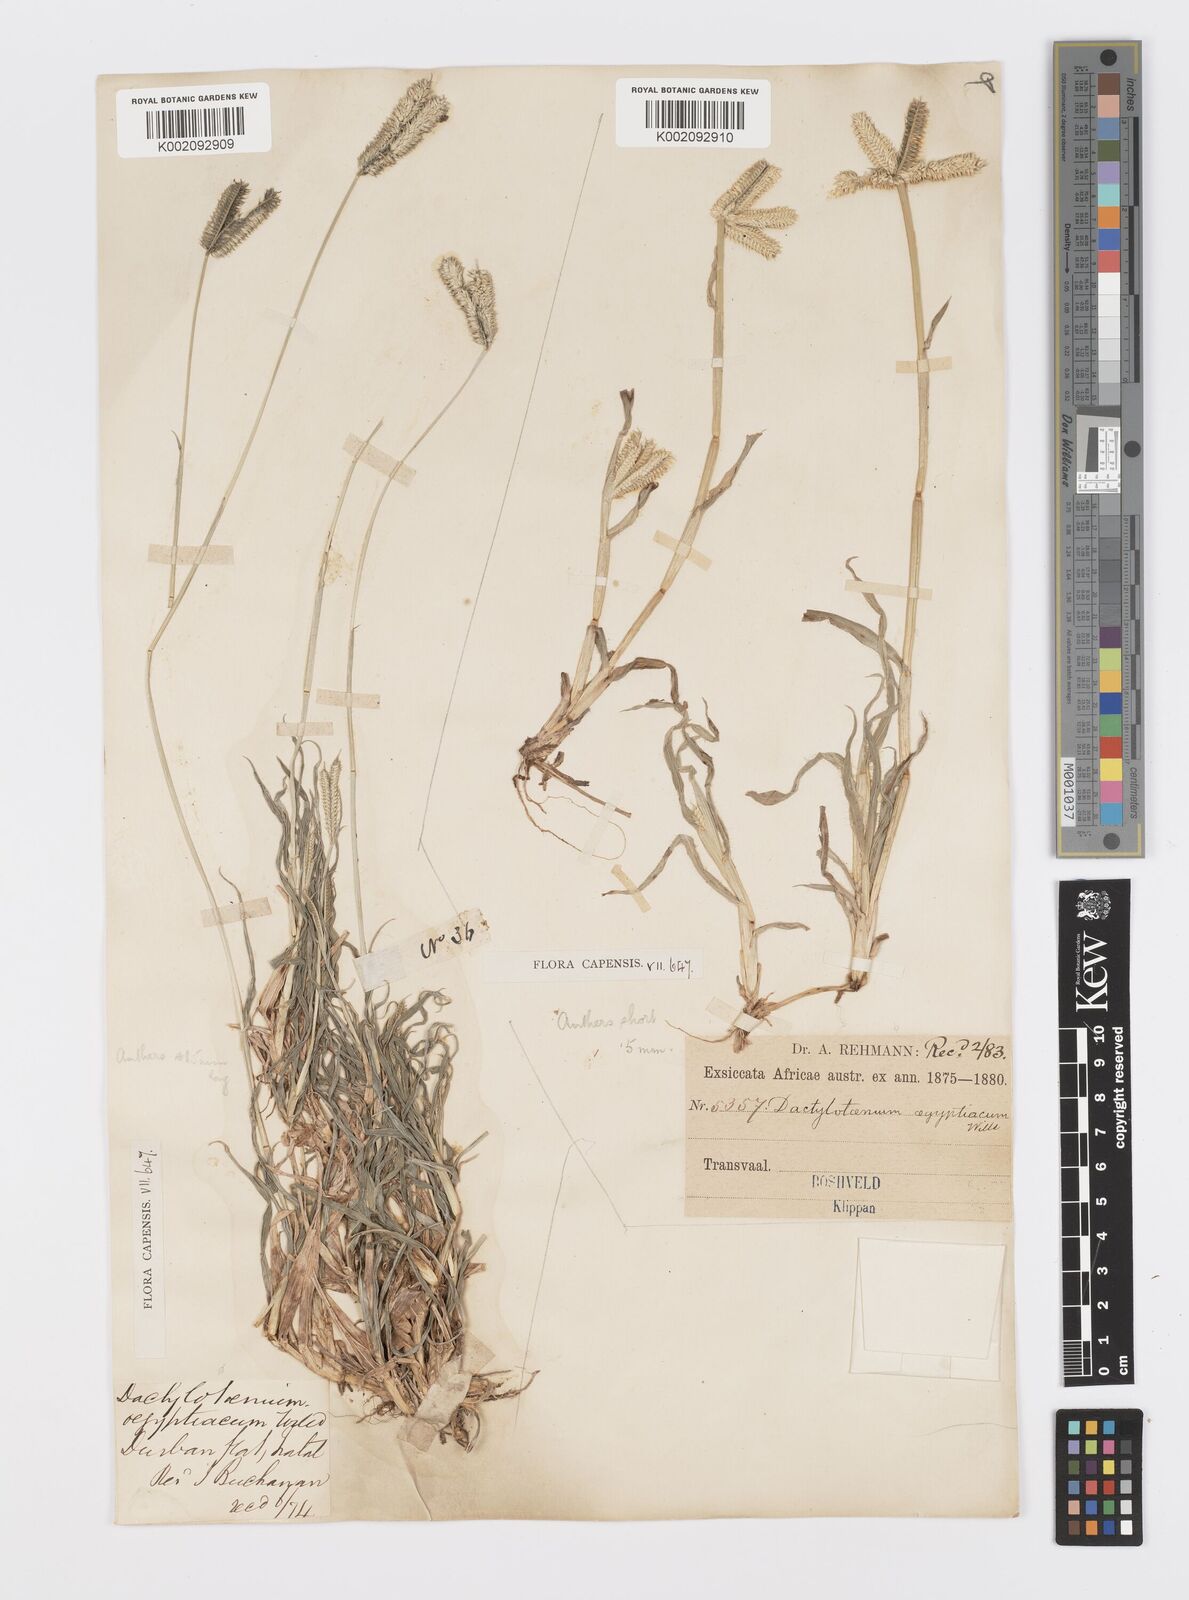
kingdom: Plantae
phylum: Tracheophyta
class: Liliopsida
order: Poales
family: Poaceae
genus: Dactyloctenium
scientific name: Dactyloctenium australe
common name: Durban grass
